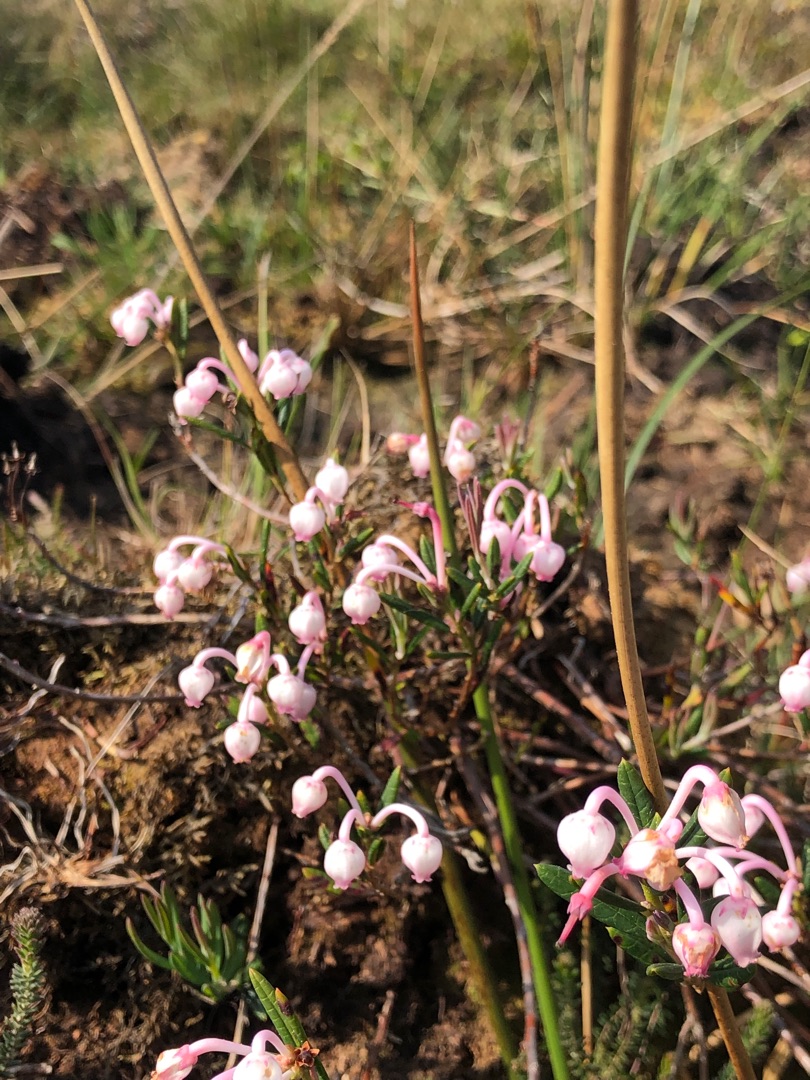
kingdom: Plantae
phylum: Tracheophyta
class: Magnoliopsida
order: Ericales
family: Ericaceae
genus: Andromeda
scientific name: Andromeda polifolia
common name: Rosmarinlyng
